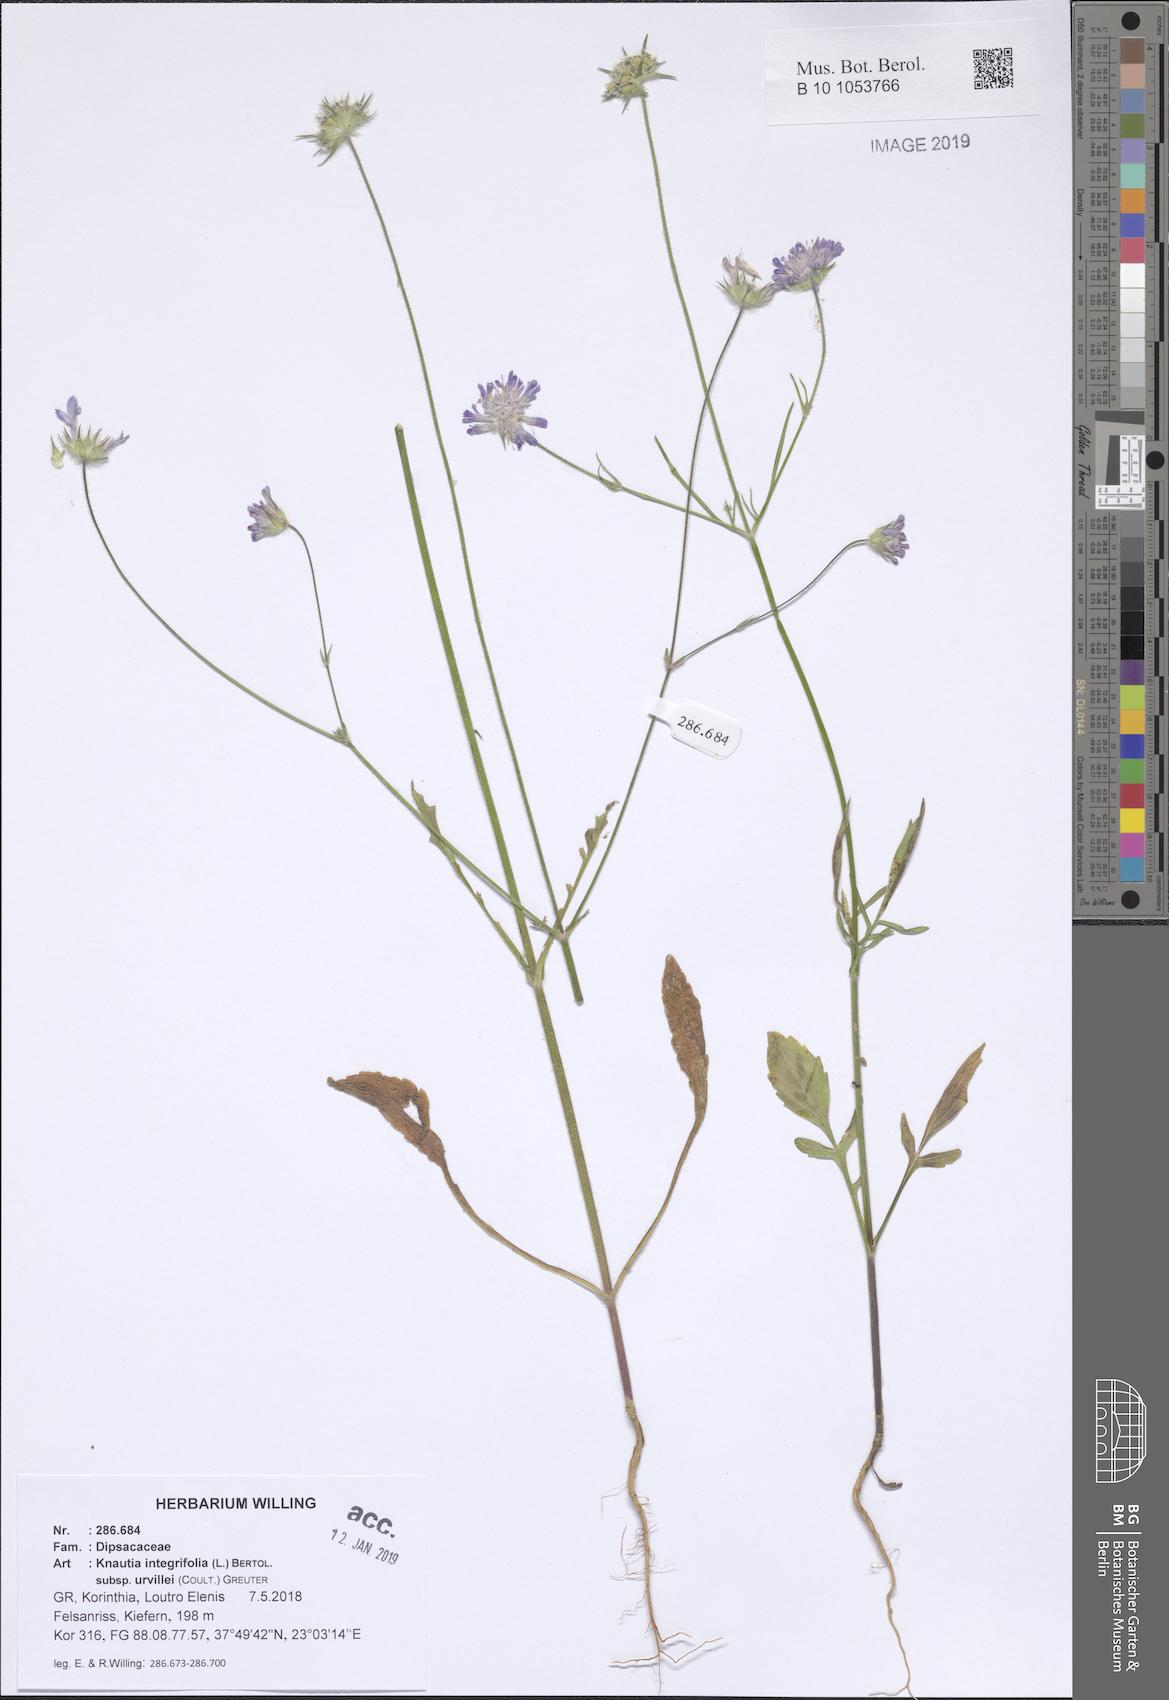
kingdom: Plantae
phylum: Tracheophyta
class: Magnoliopsida
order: Dipsacales
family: Caprifoliaceae
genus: Knautia
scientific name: Knautia integrifolia
